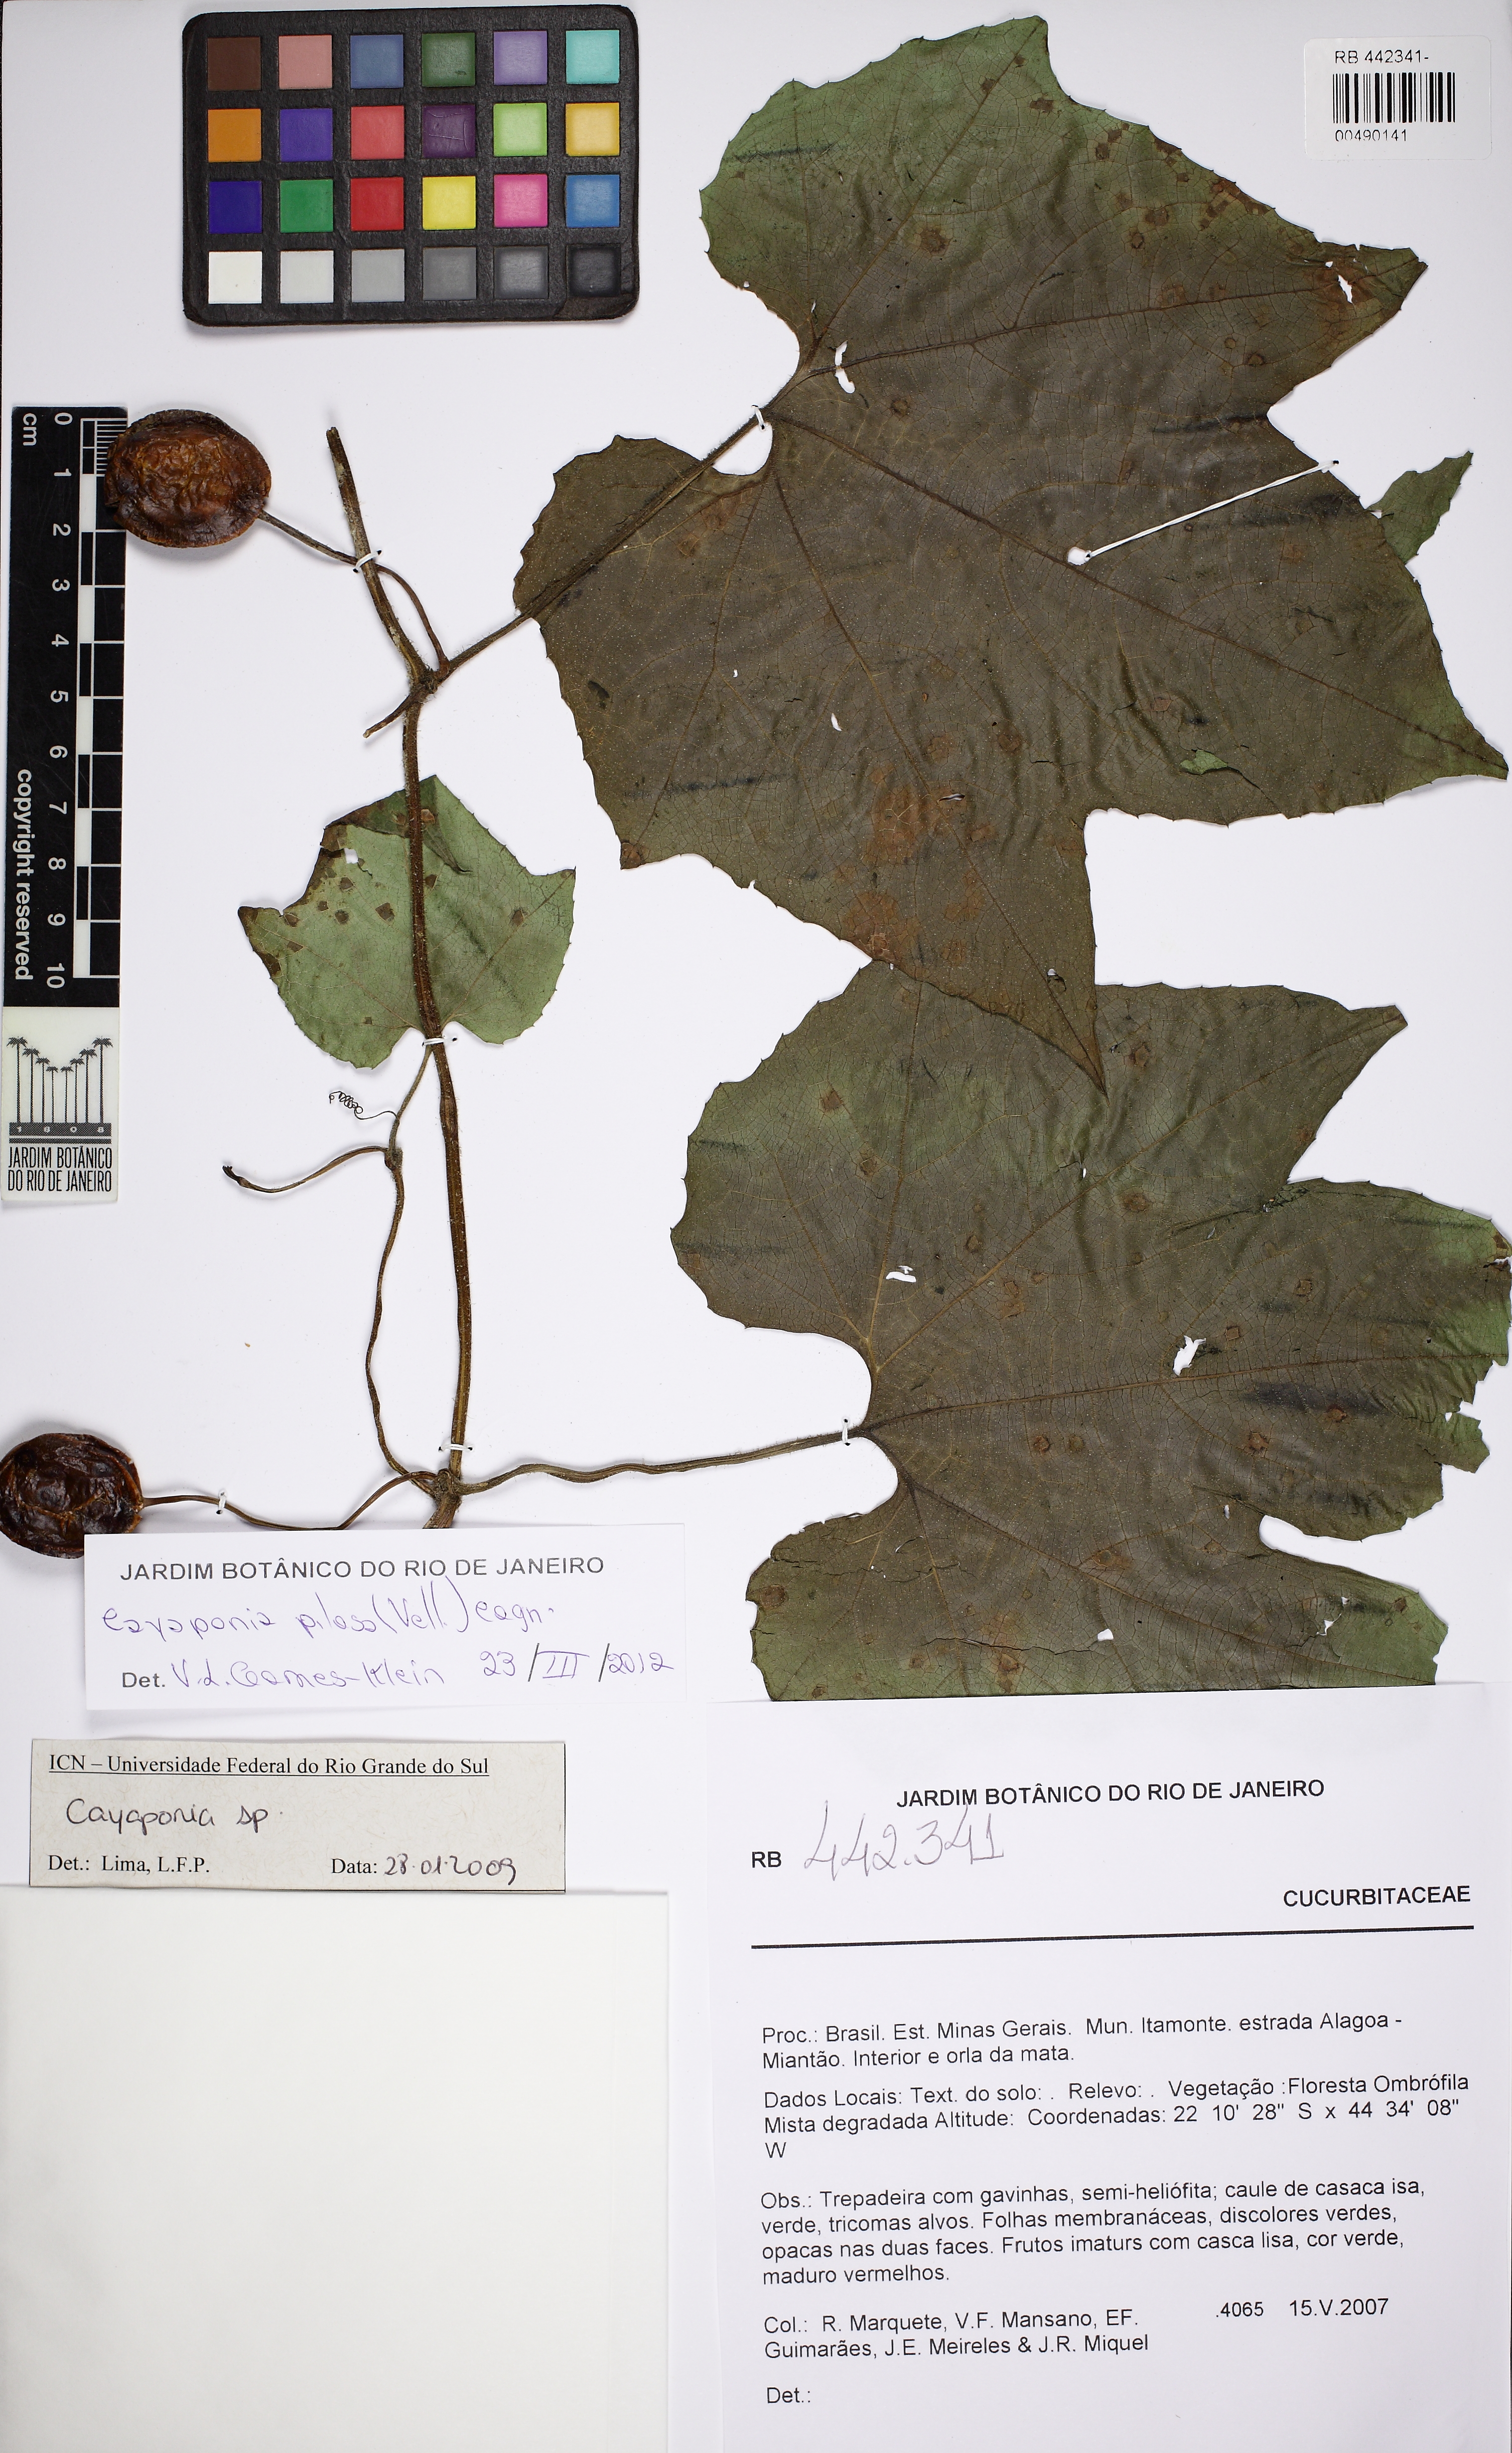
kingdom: Plantae
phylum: Tracheophyta
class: Magnoliopsida
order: Cucurbitales
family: Cucurbitaceae
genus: Cayaponia
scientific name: Cayaponia pilosa
